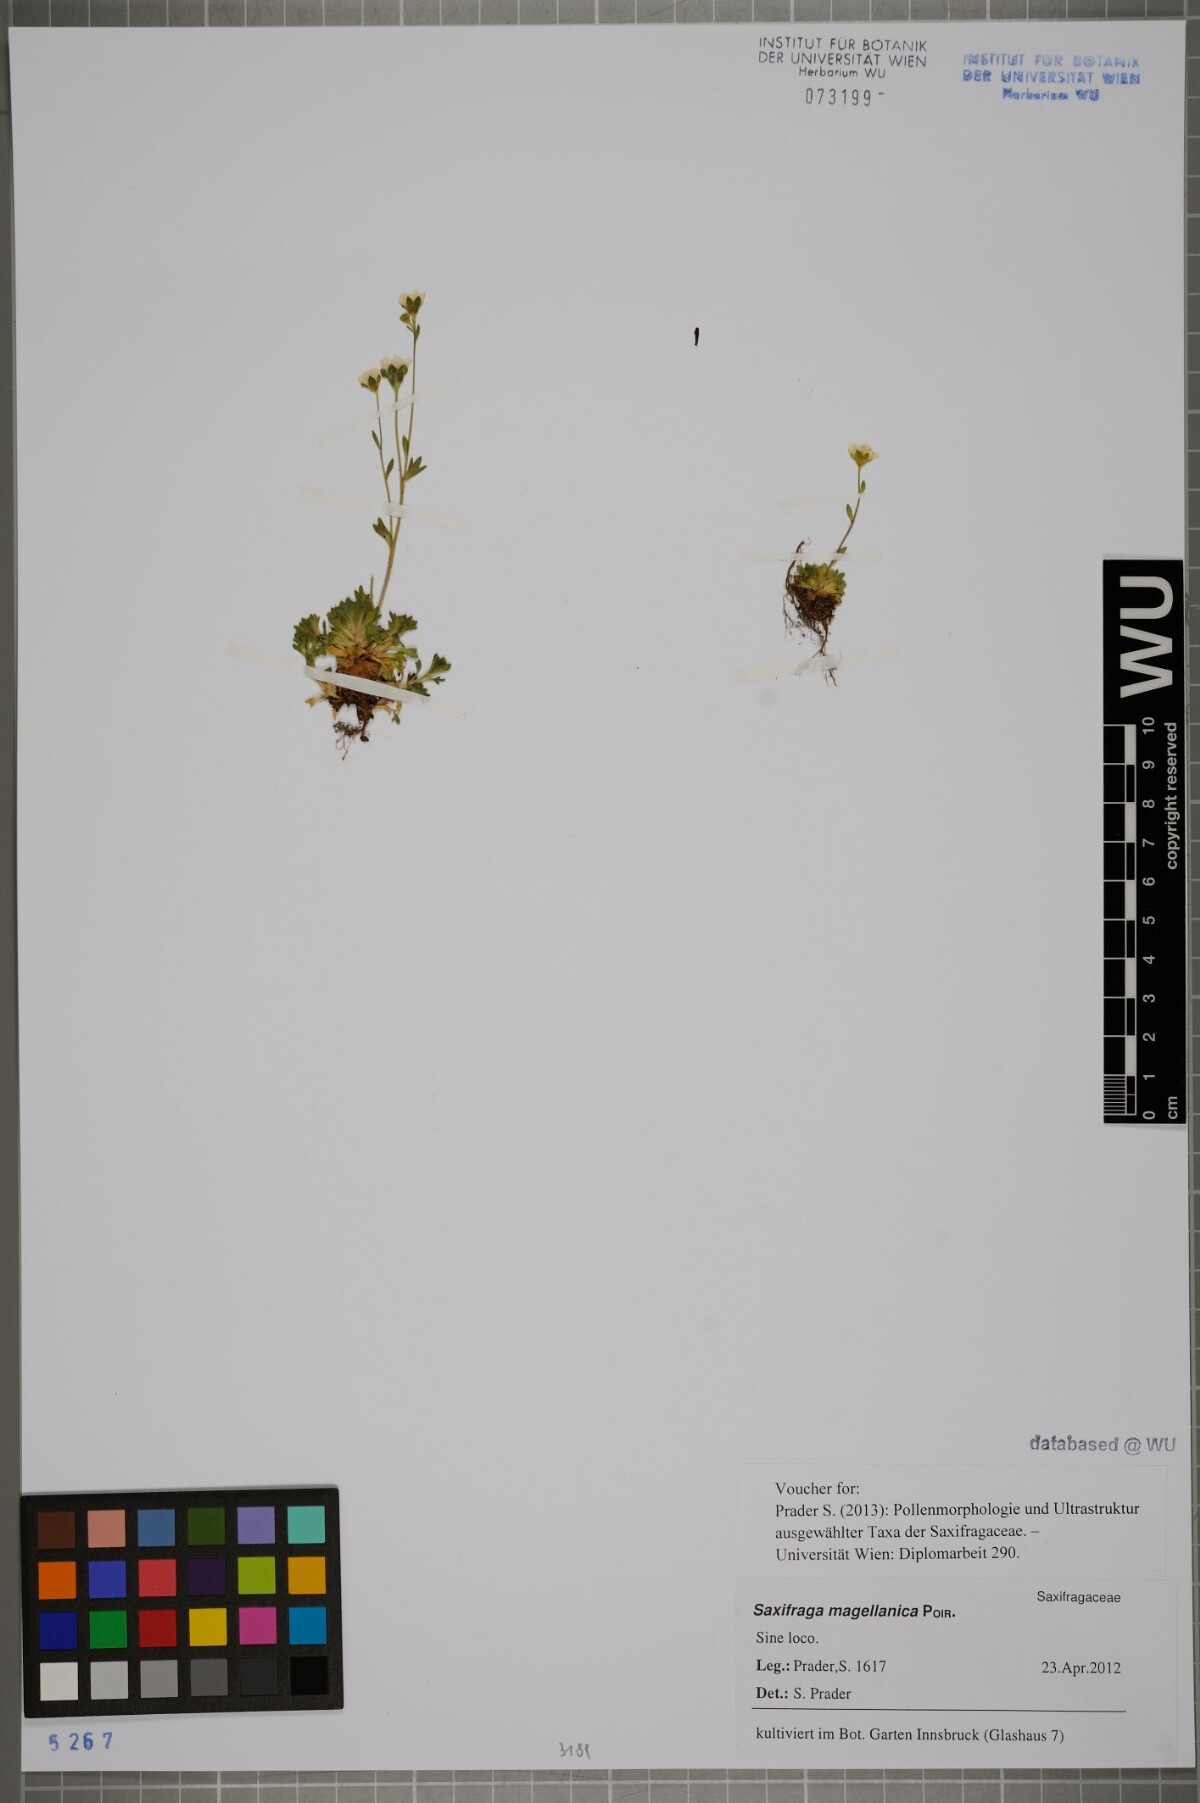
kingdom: Plantae
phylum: Tracheophyta
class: Magnoliopsida
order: Saxifragales
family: Saxifragaceae
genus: Saxifraga
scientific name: Saxifraga magellanica
